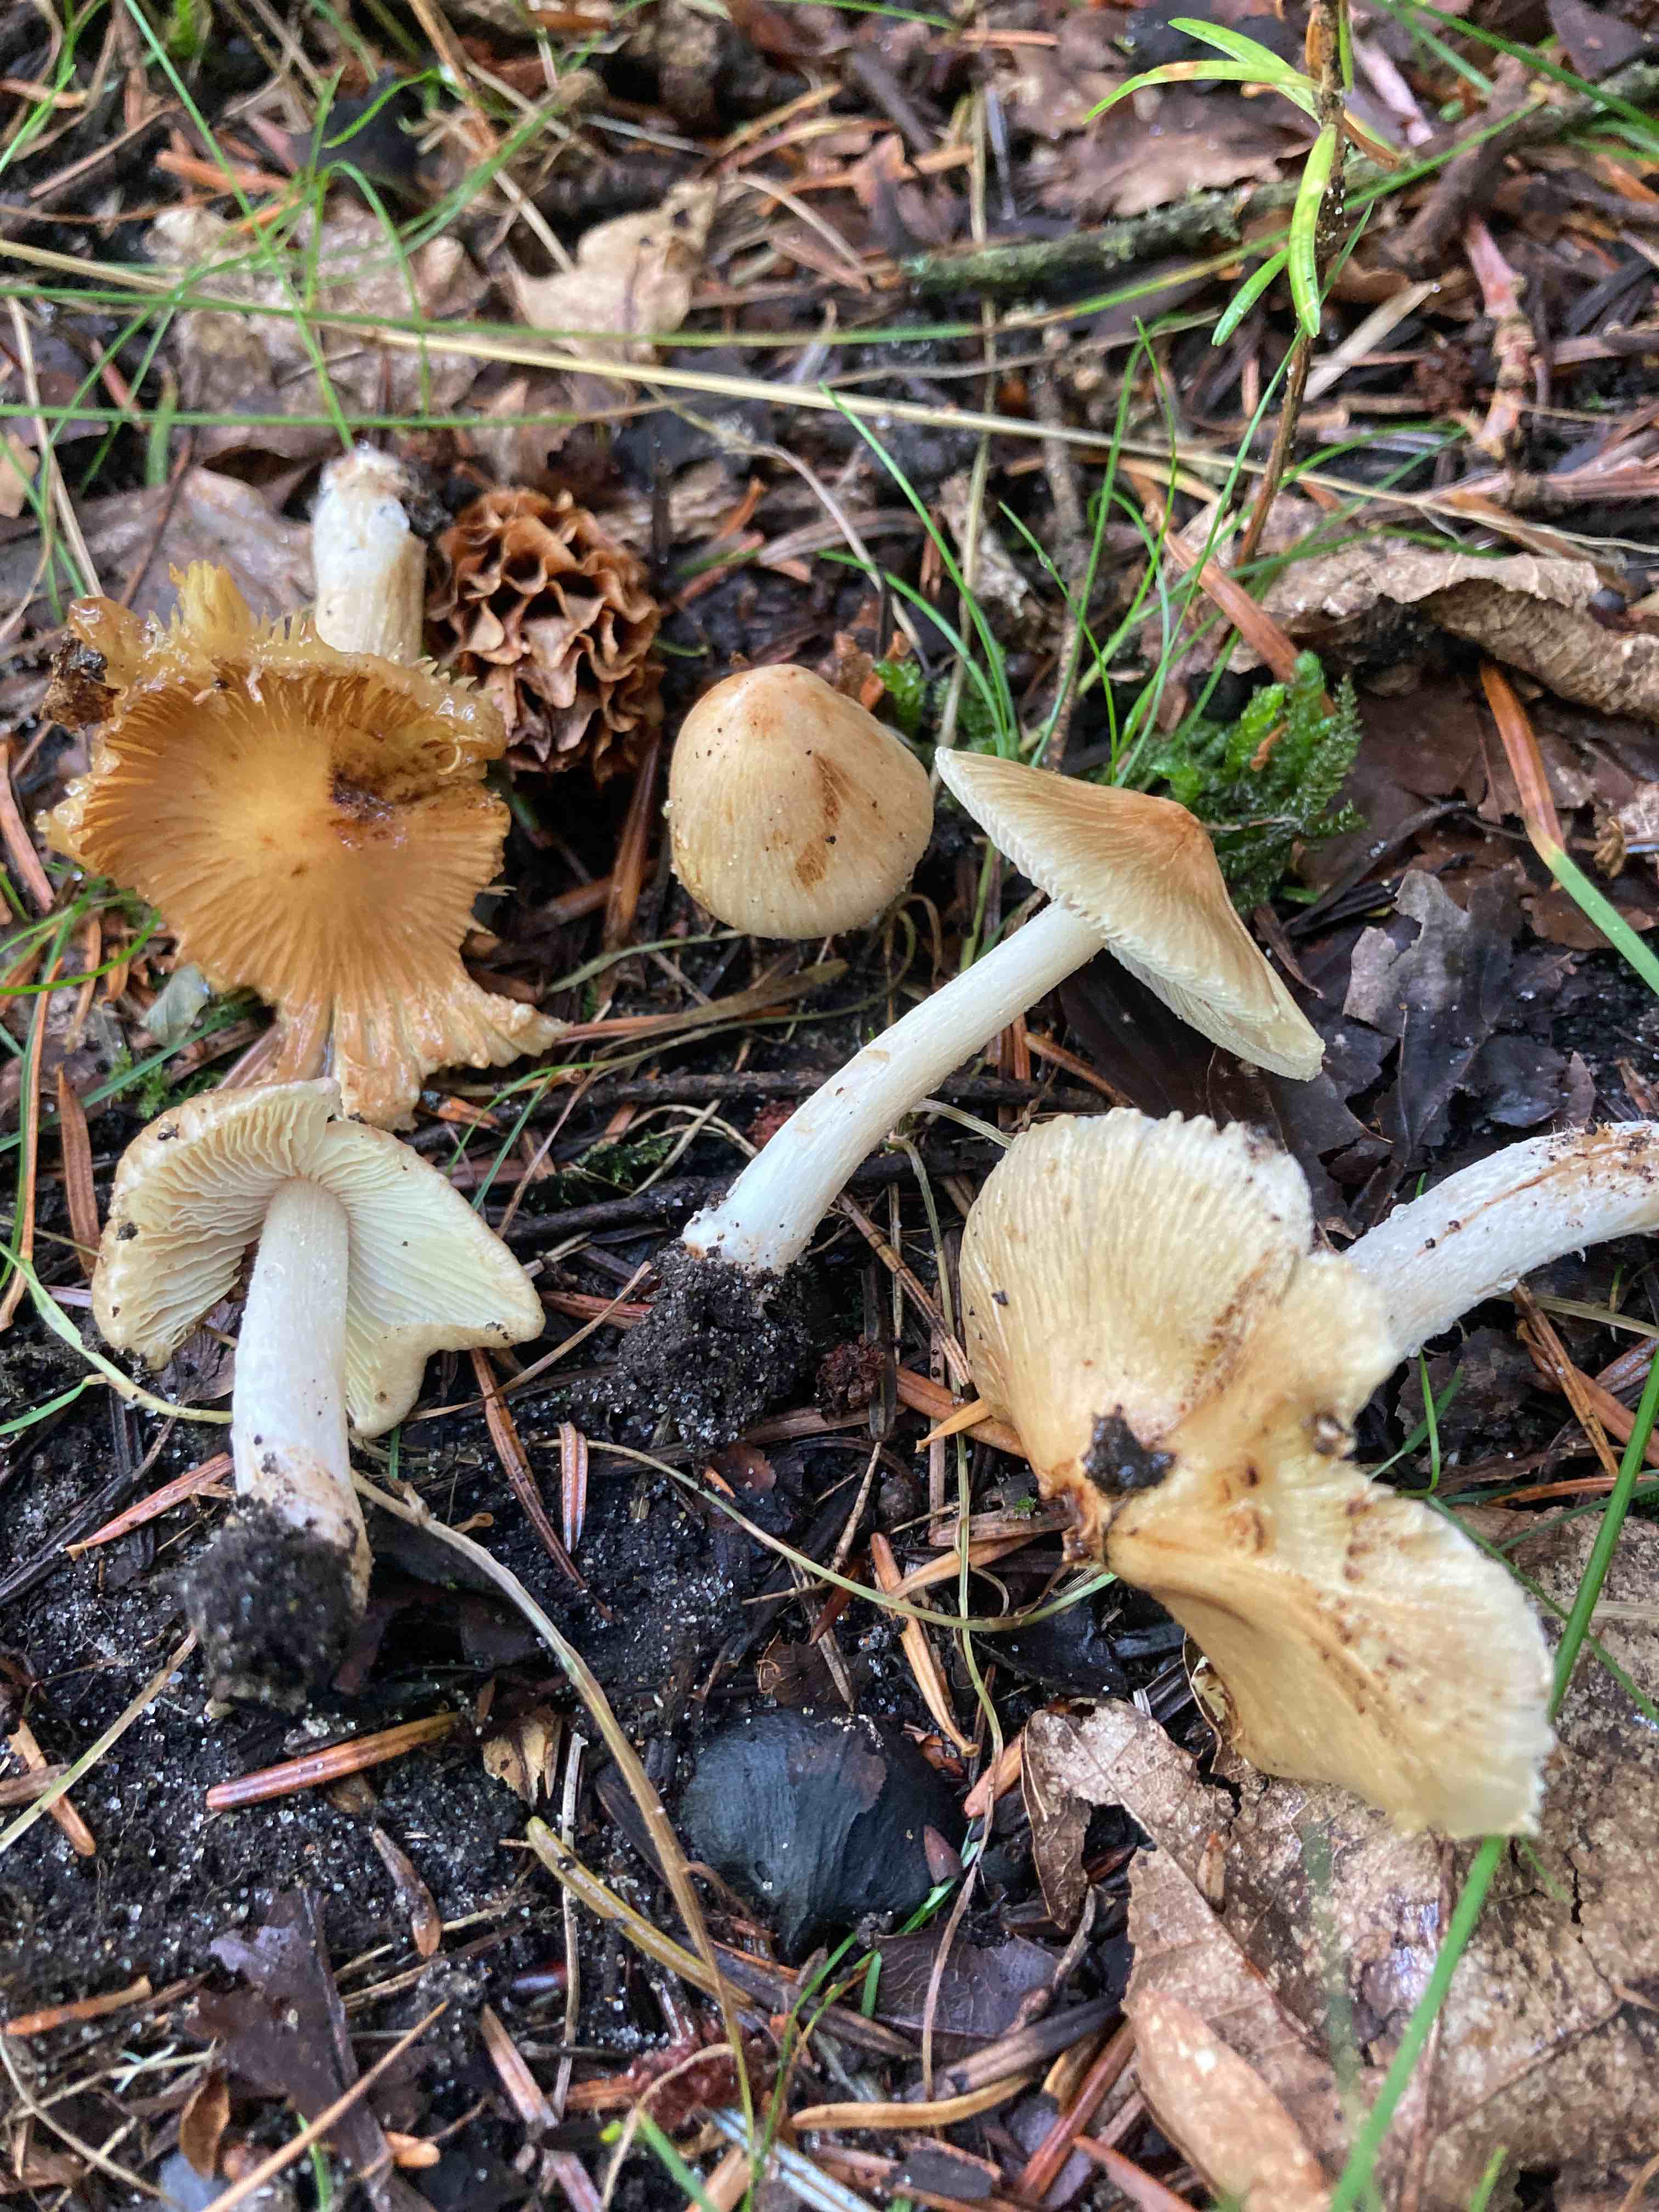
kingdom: Fungi
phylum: Basidiomycota
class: Agaricomycetes
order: Agaricales
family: Inocybaceae
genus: Inosperma
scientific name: Inosperma
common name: Trævlhat
